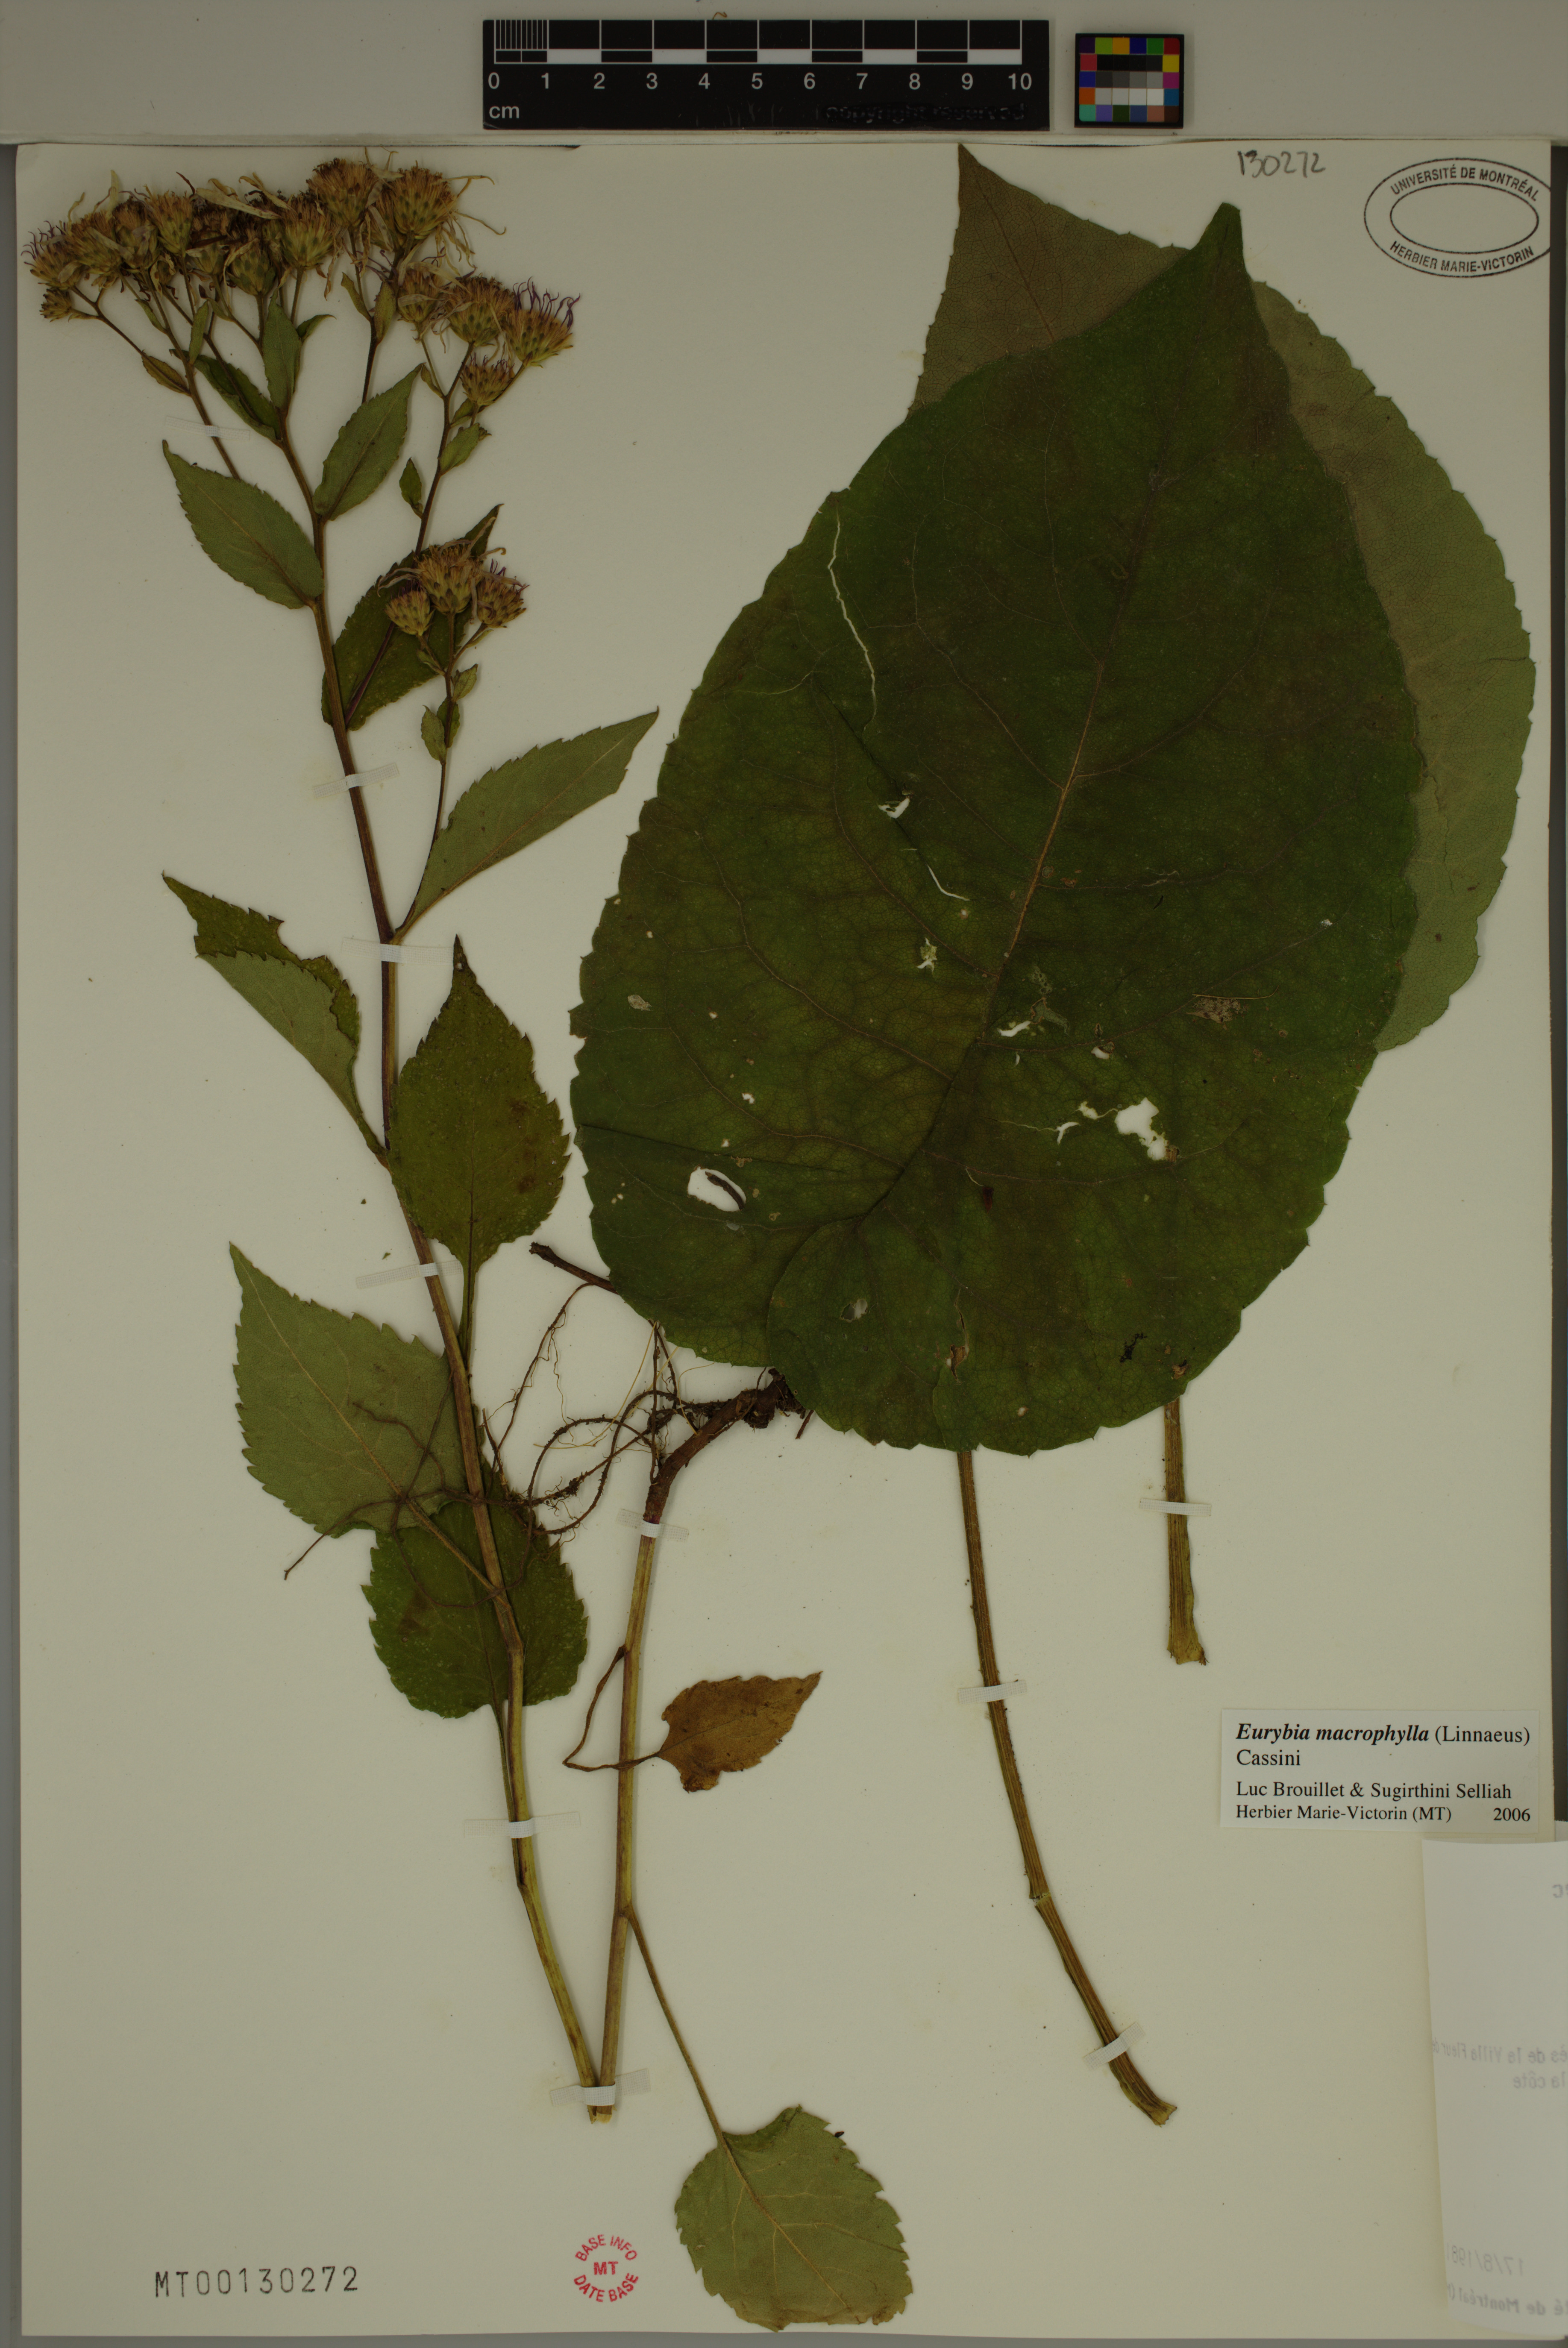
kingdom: Plantae
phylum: Tracheophyta
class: Magnoliopsida
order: Asterales
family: Asteraceae
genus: Eurybia
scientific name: Eurybia macrophylla
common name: Big-leaved aster
